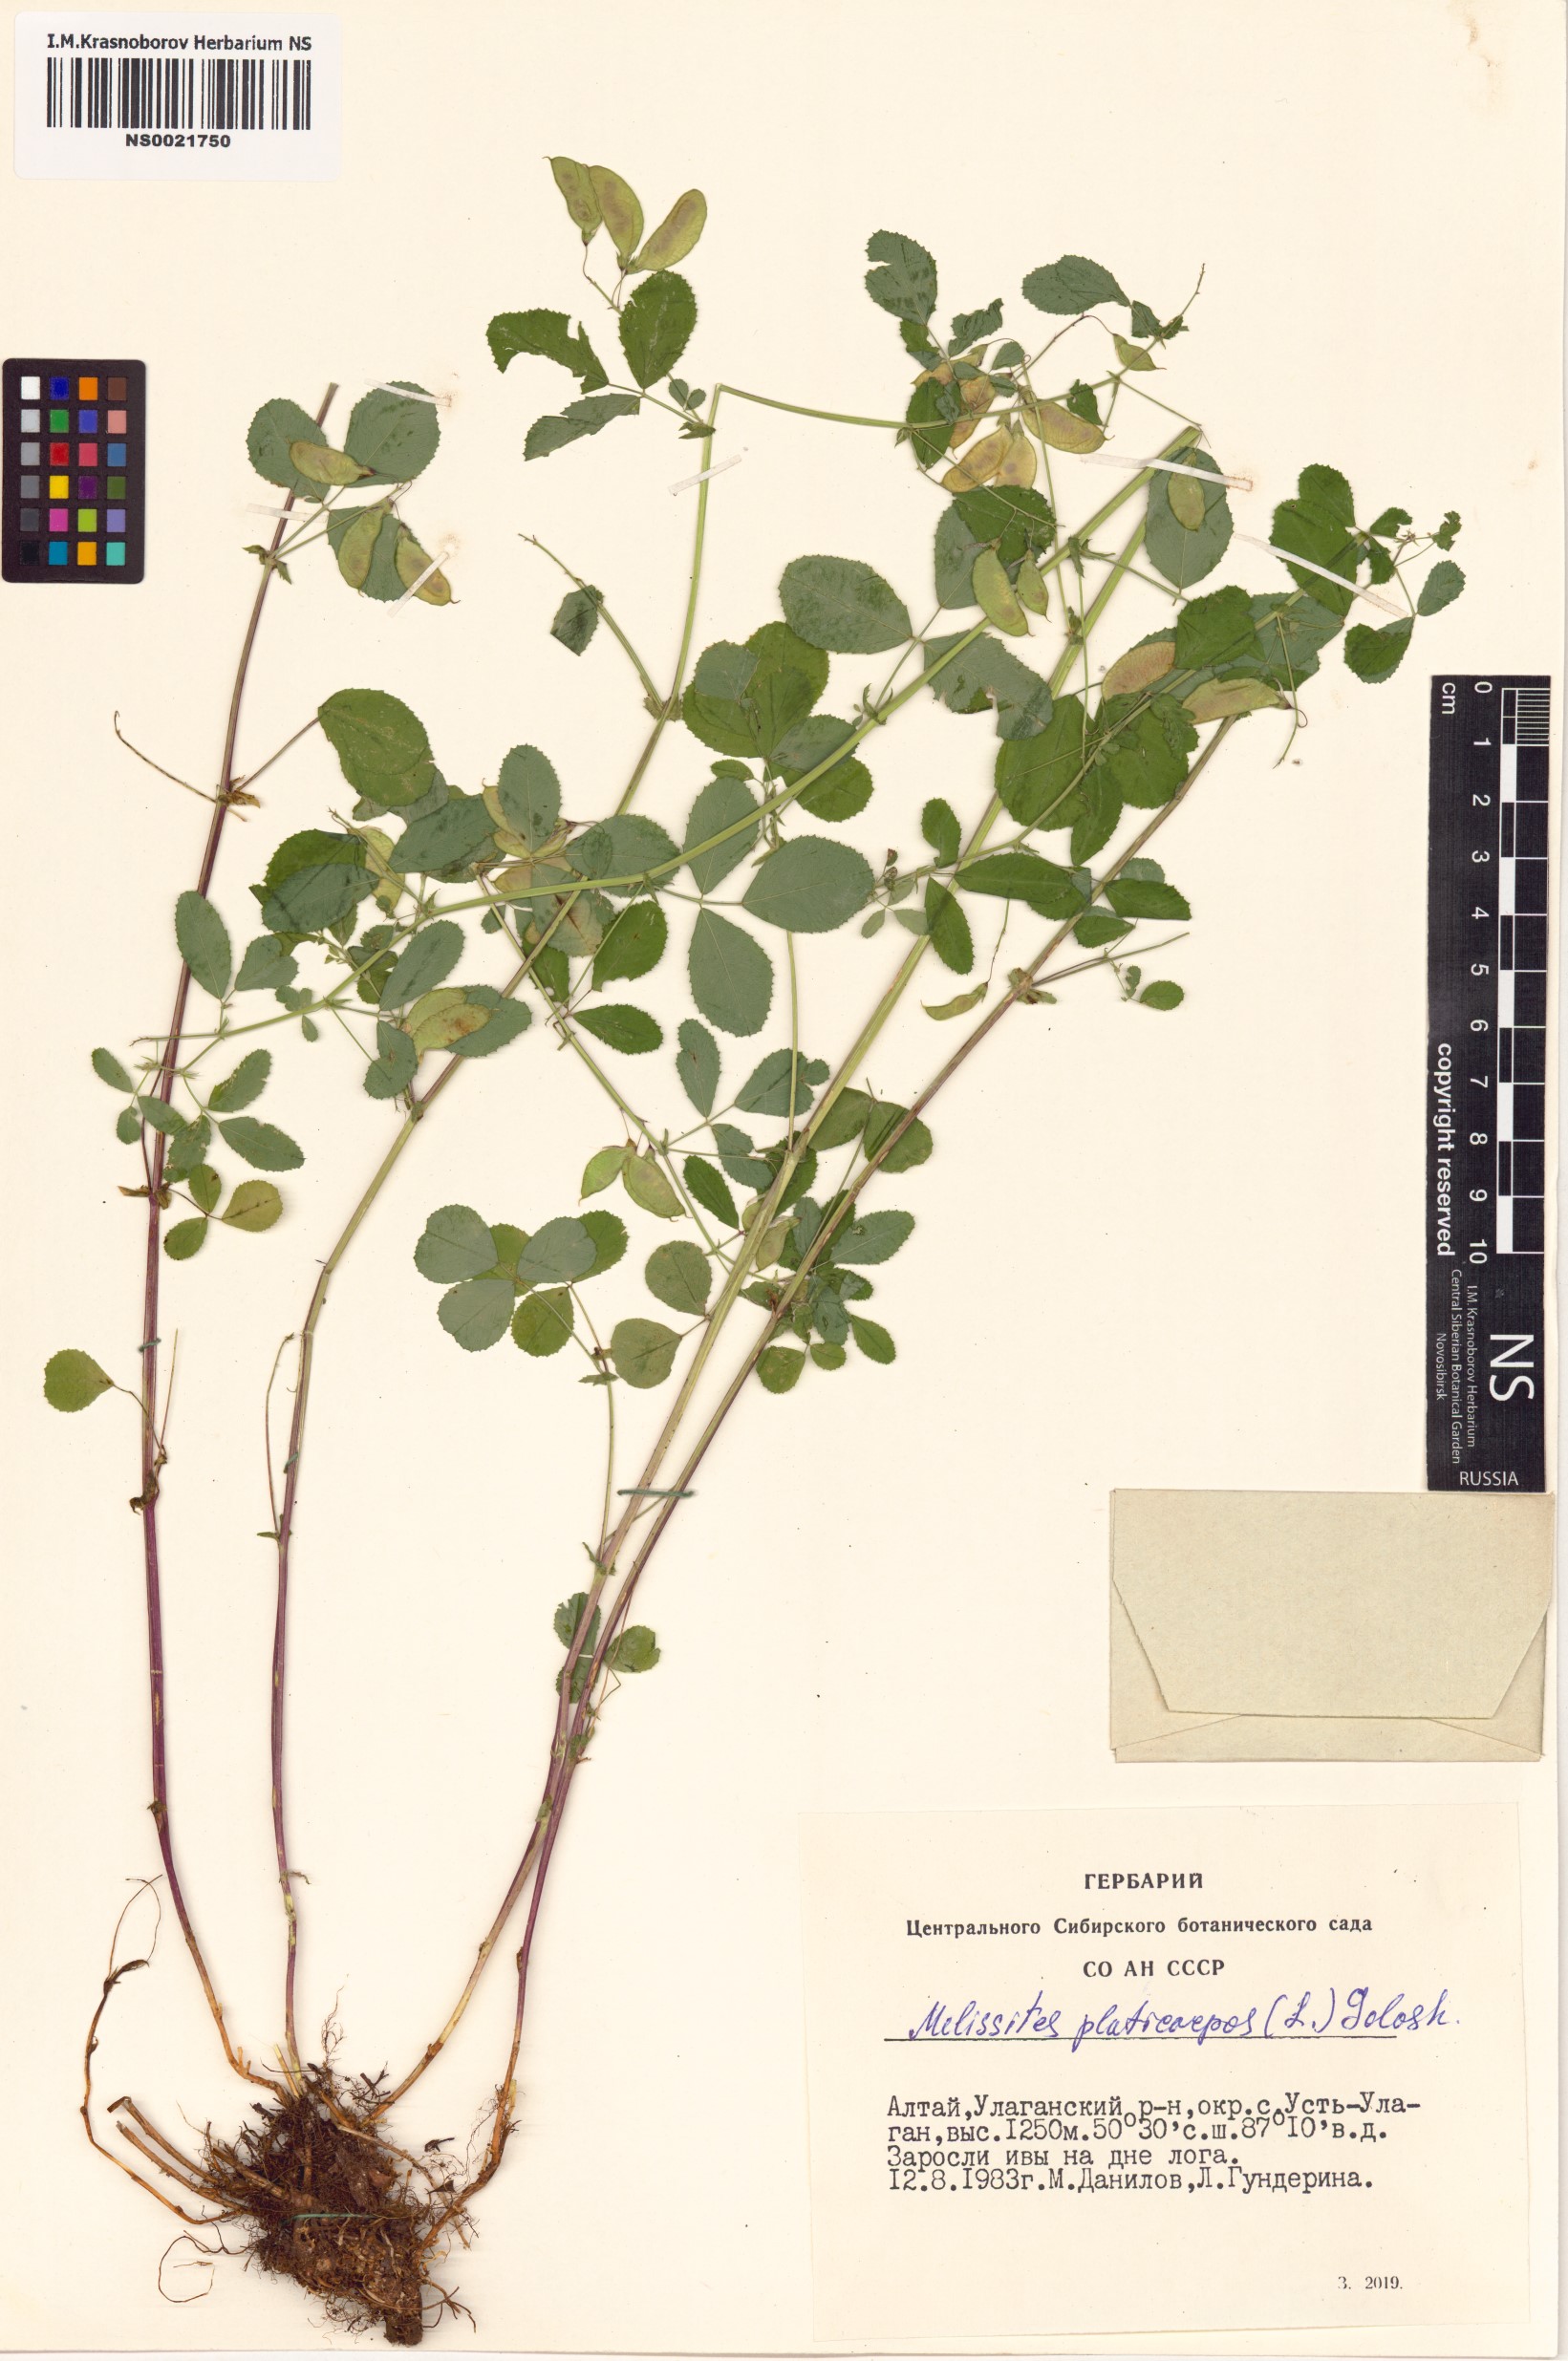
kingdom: Plantae
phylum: Tracheophyta
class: Magnoliopsida
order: Fabales
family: Fabaceae
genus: Medicago
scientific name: Medicago platycarpos
